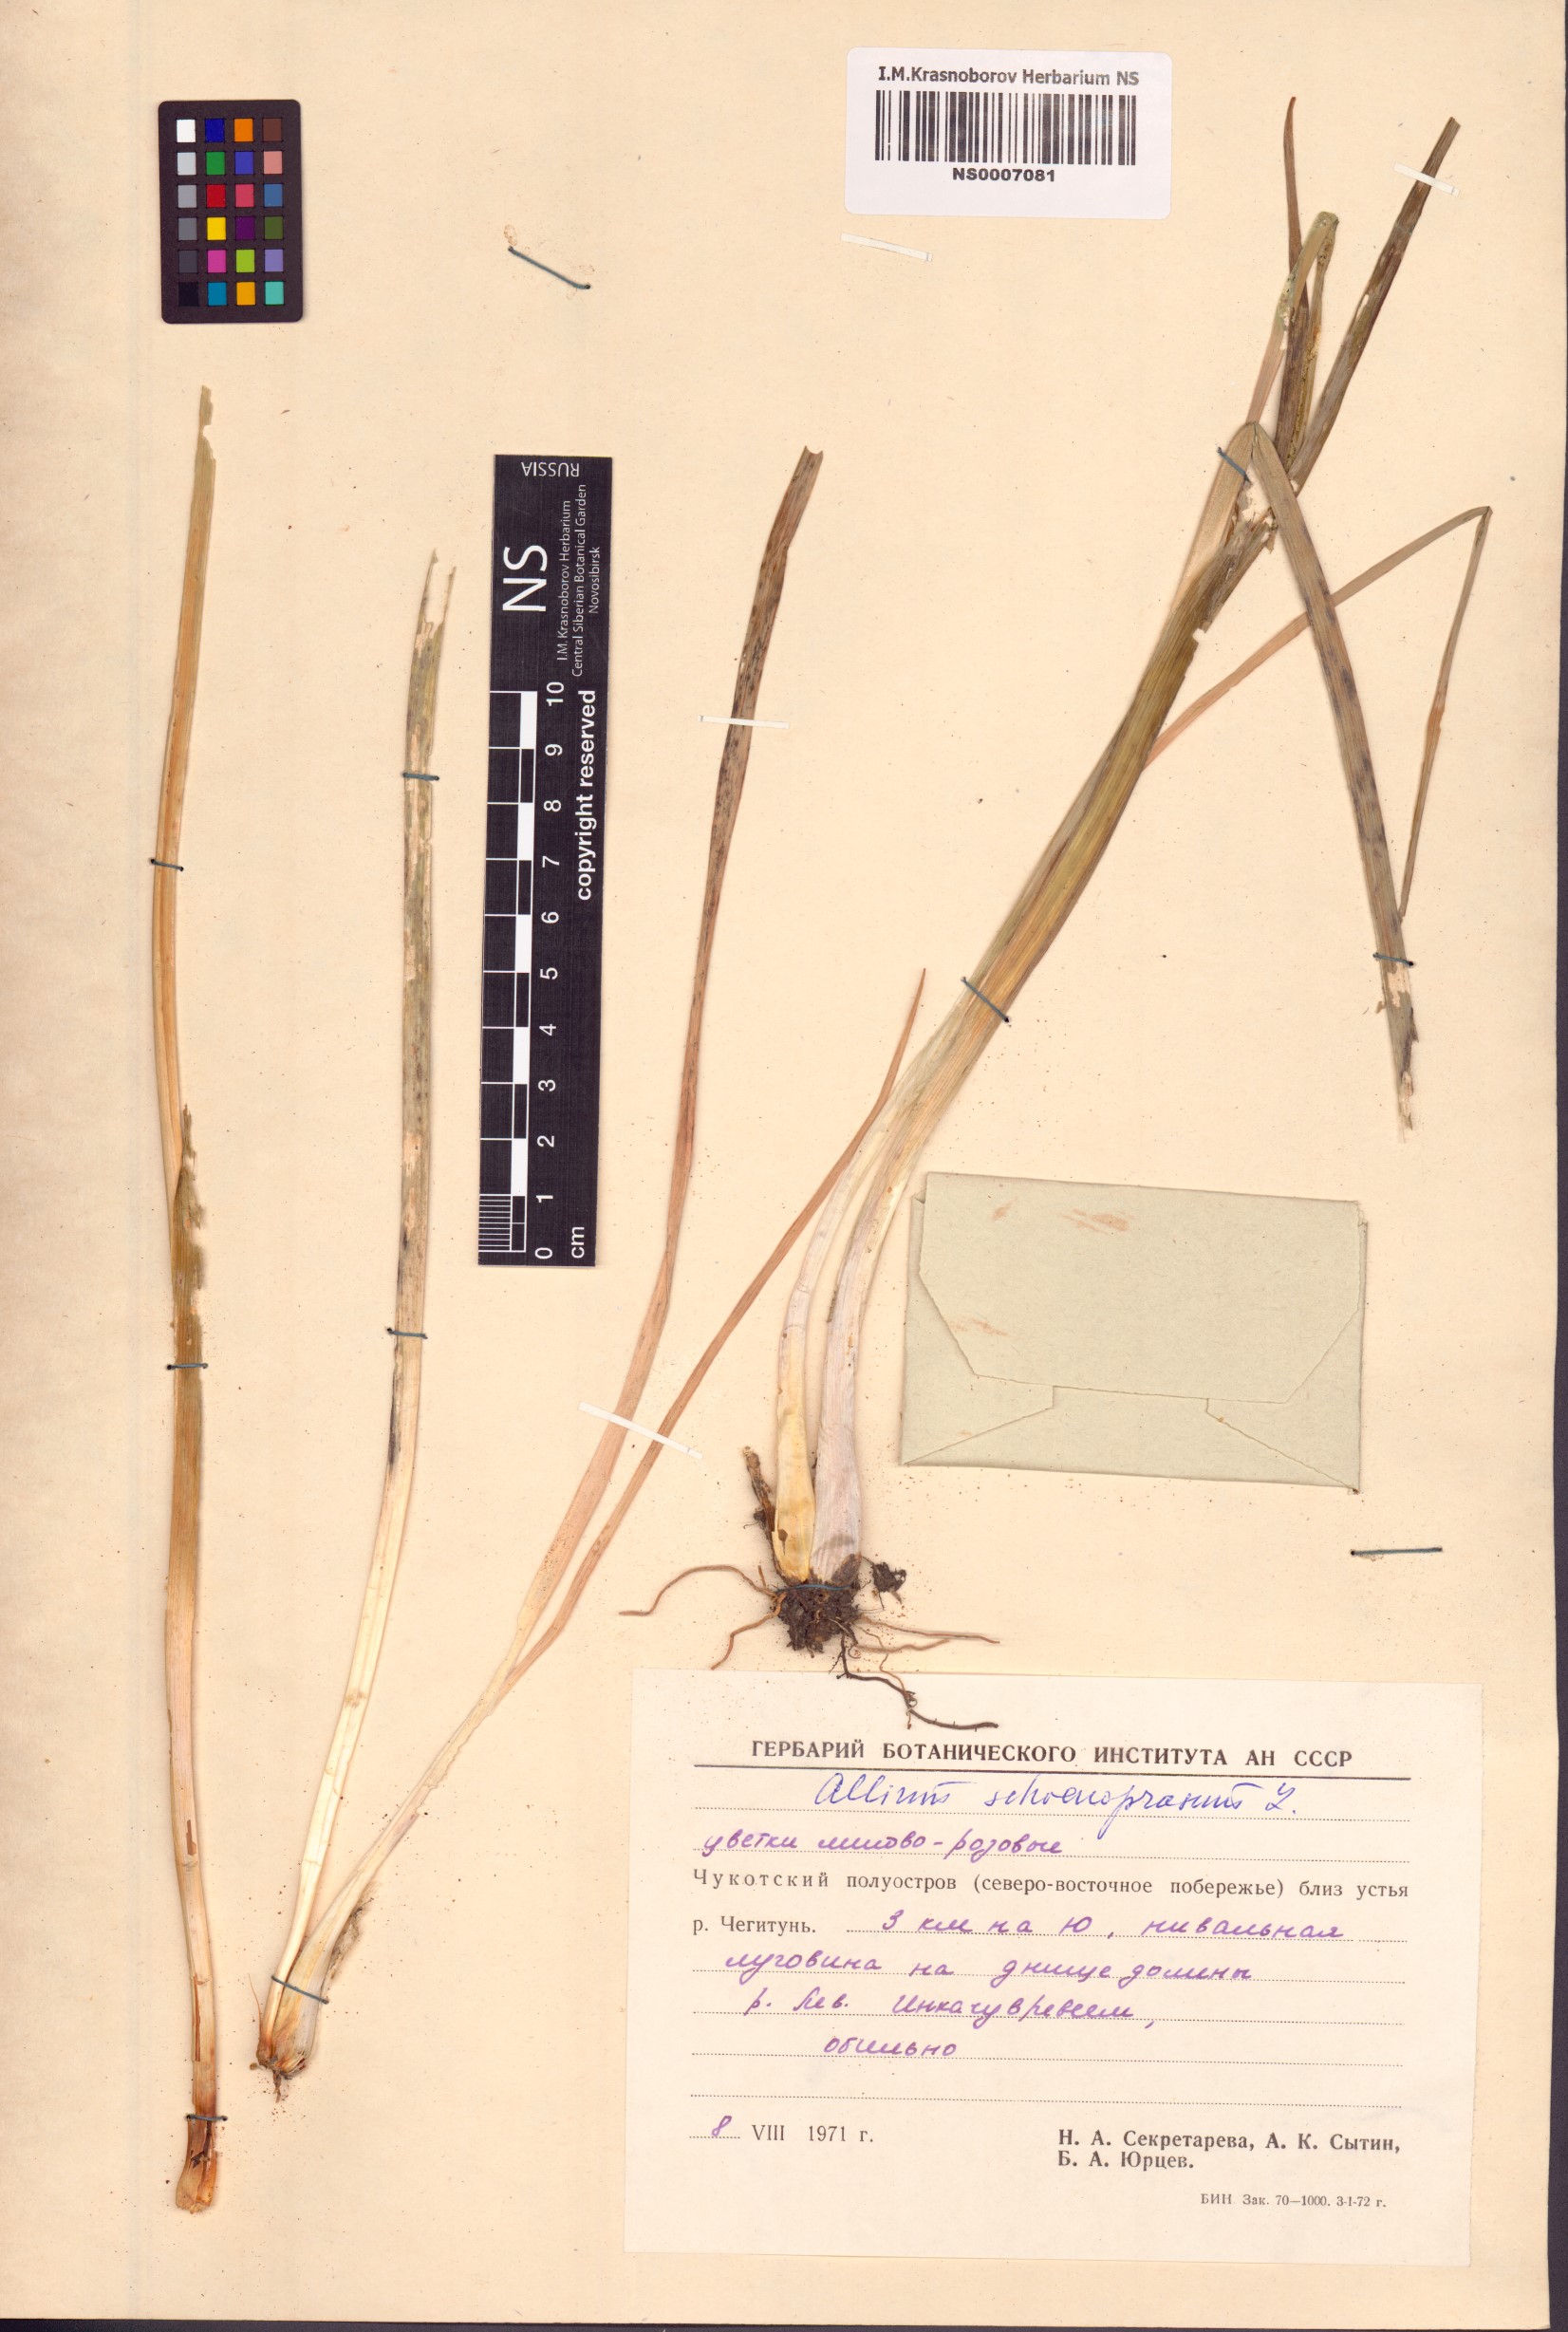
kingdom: Plantae
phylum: Tracheophyta
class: Liliopsida
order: Asparagales
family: Amaryllidaceae
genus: Allium
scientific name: Allium schoenoprasum
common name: Chives
